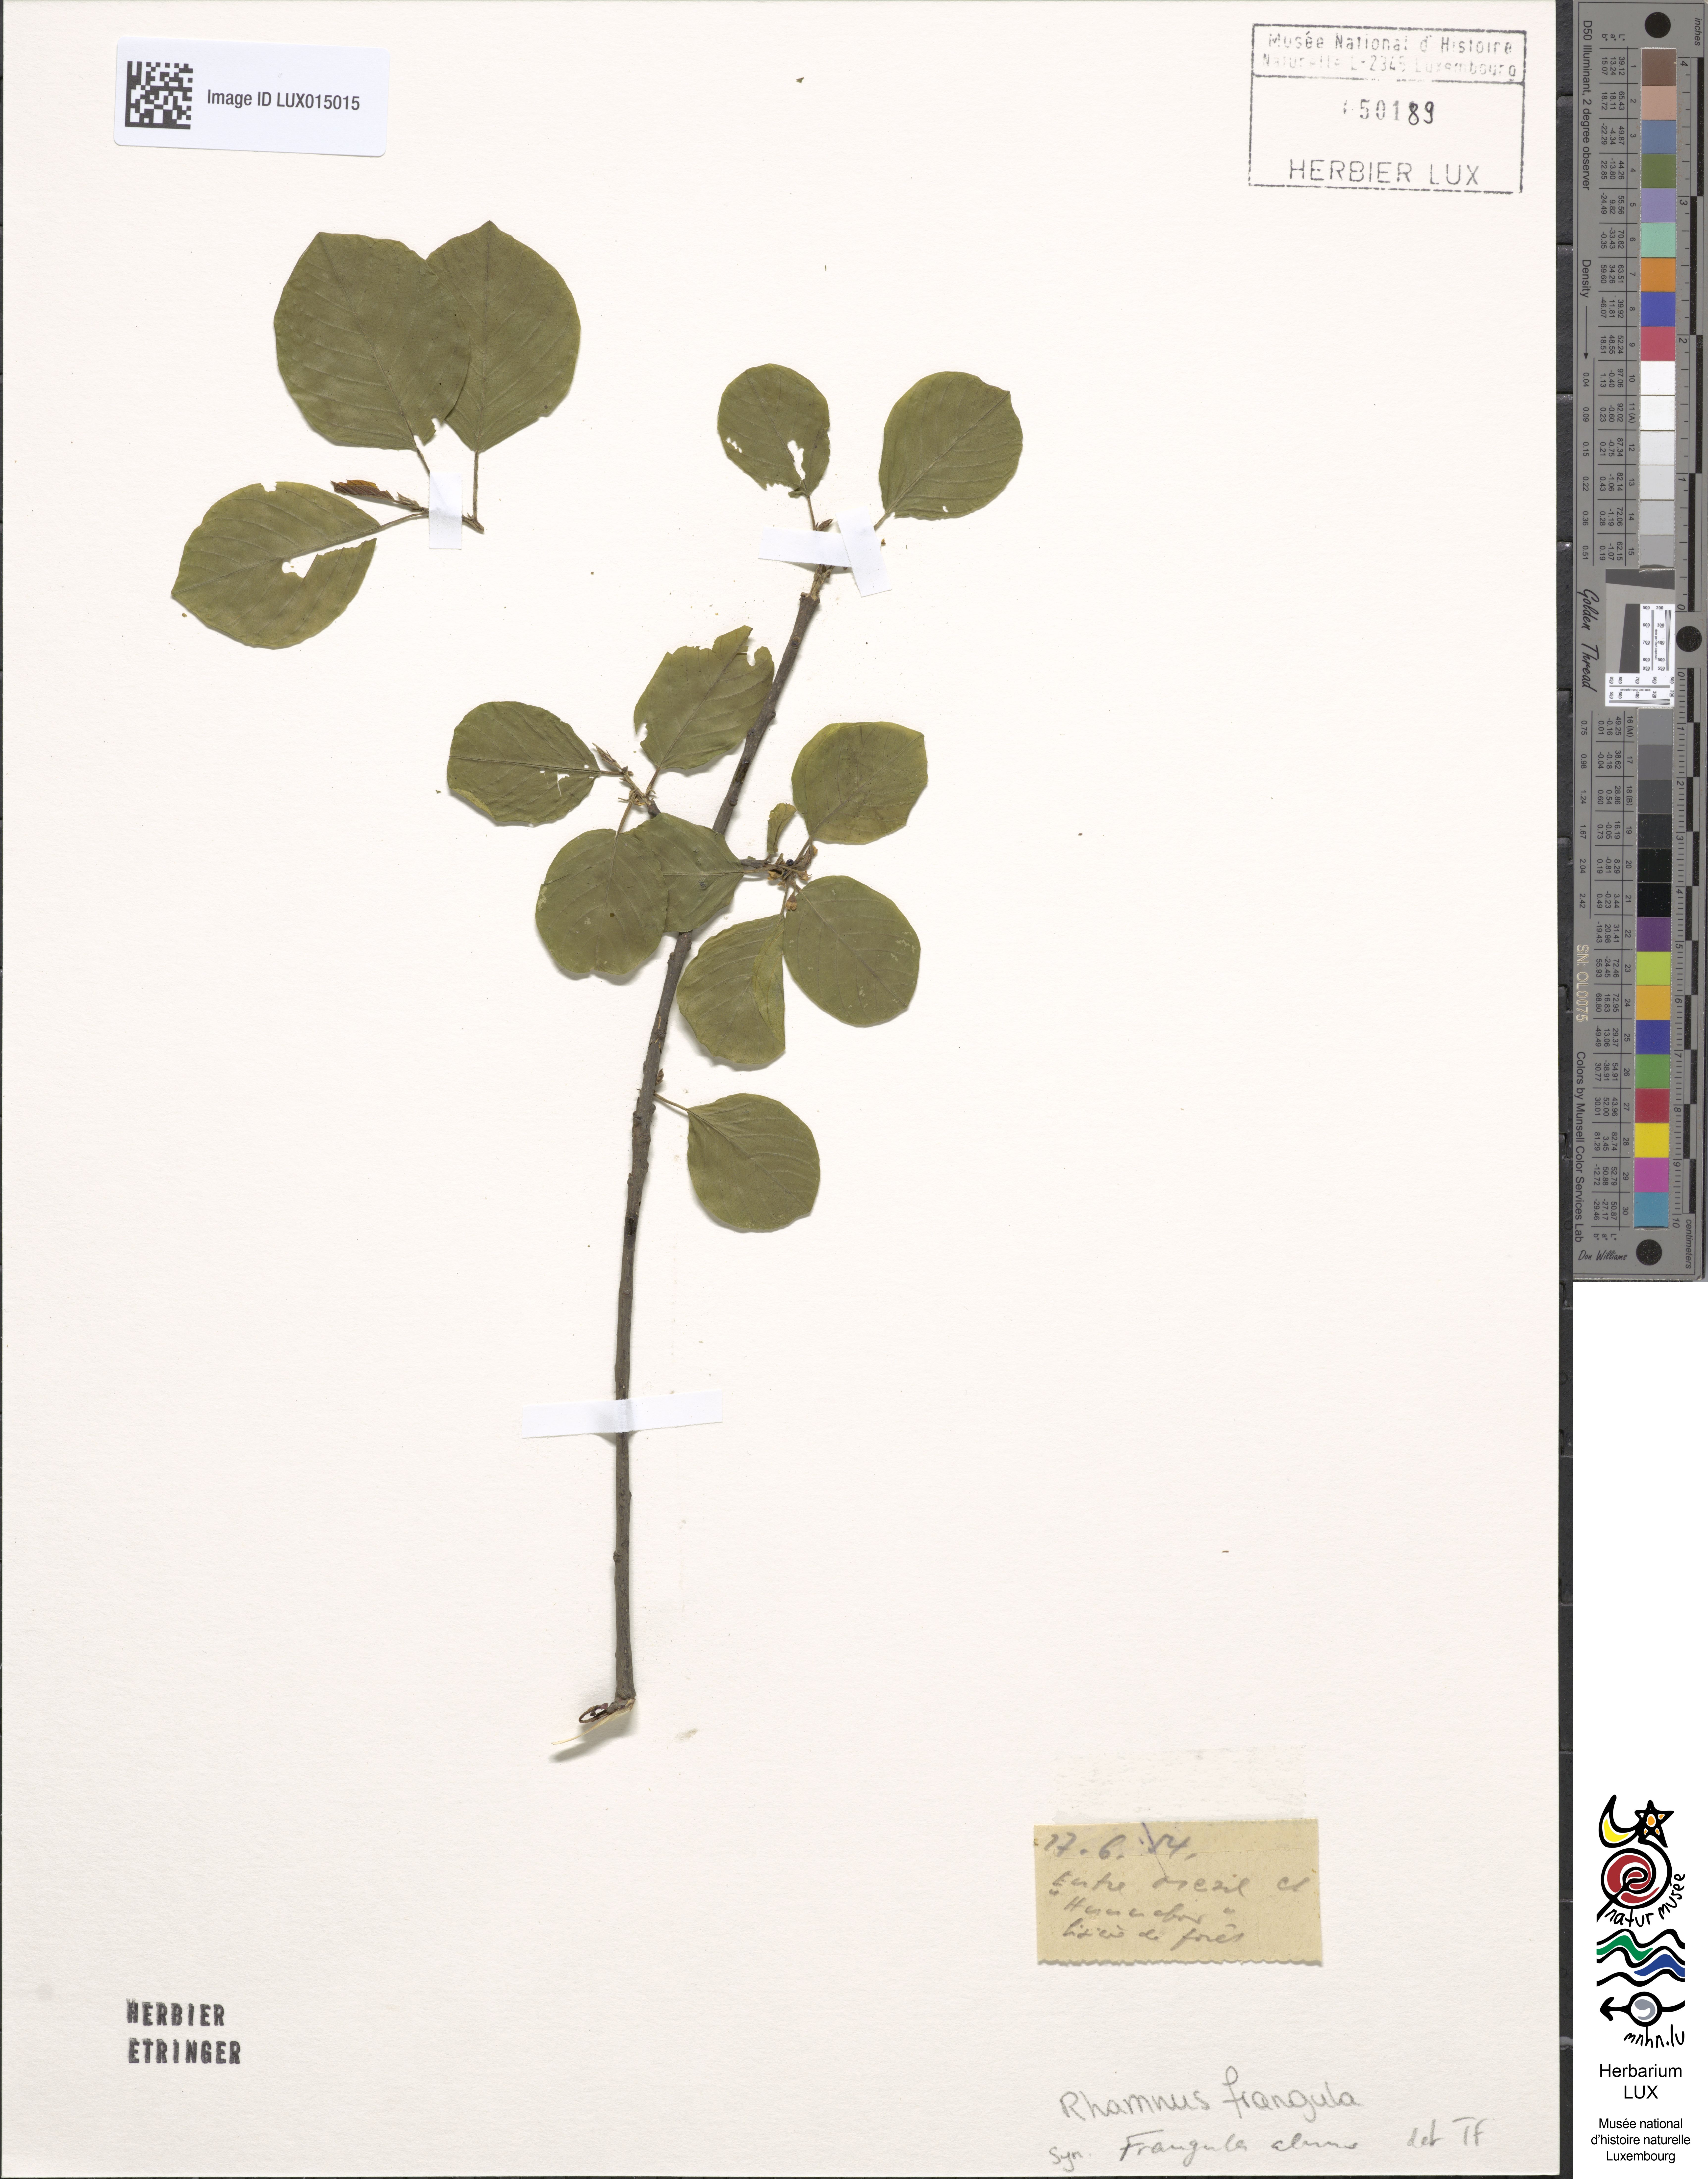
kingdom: Plantae
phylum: Tracheophyta
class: Magnoliopsida
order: Rosales
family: Rhamnaceae
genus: Frangula
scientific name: Frangula alnus
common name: Alder buckthorn
